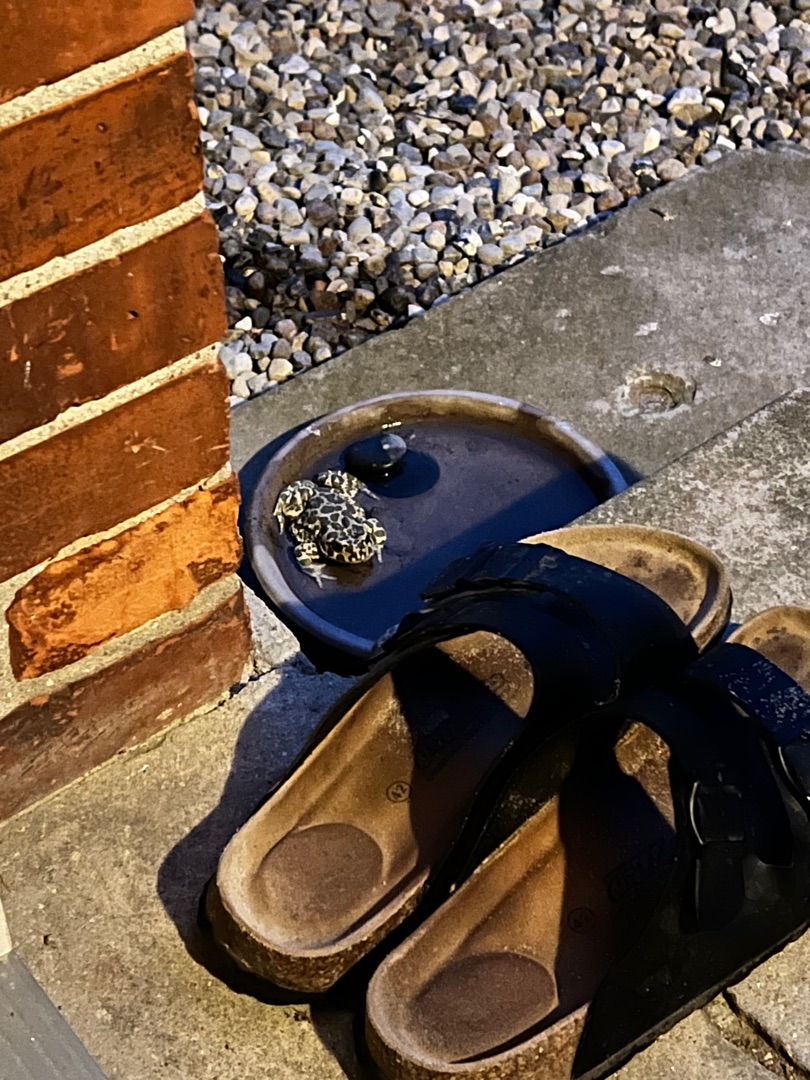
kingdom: Animalia
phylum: Chordata
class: Amphibia
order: Anura
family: Bufonidae
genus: Bufotes
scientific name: Bufotes viridis
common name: Grønbroget tudse
